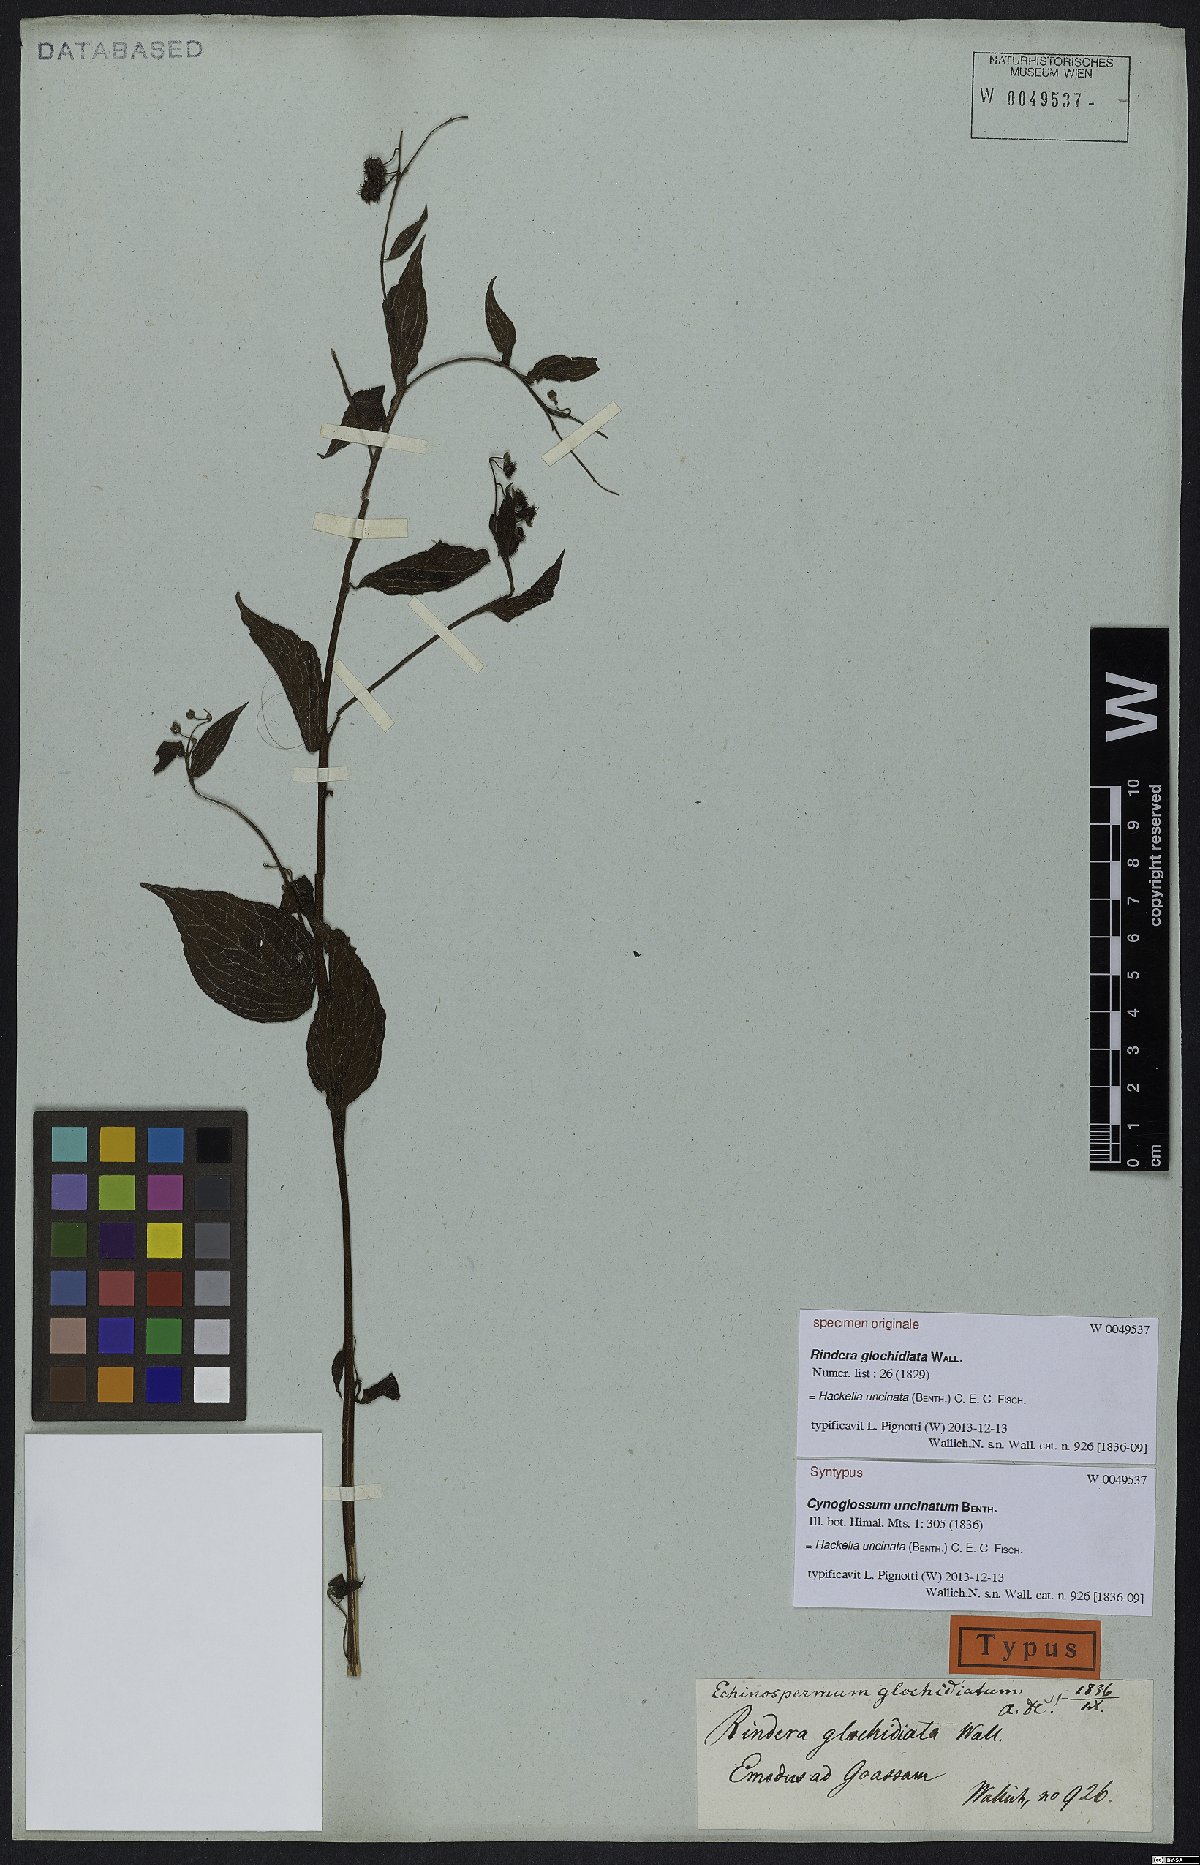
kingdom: Plantae
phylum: Tracheophyta
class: Magnoliopsida
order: Boraginales
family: Boraginaceae
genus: Hackelia
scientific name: Hackelia uncinata
